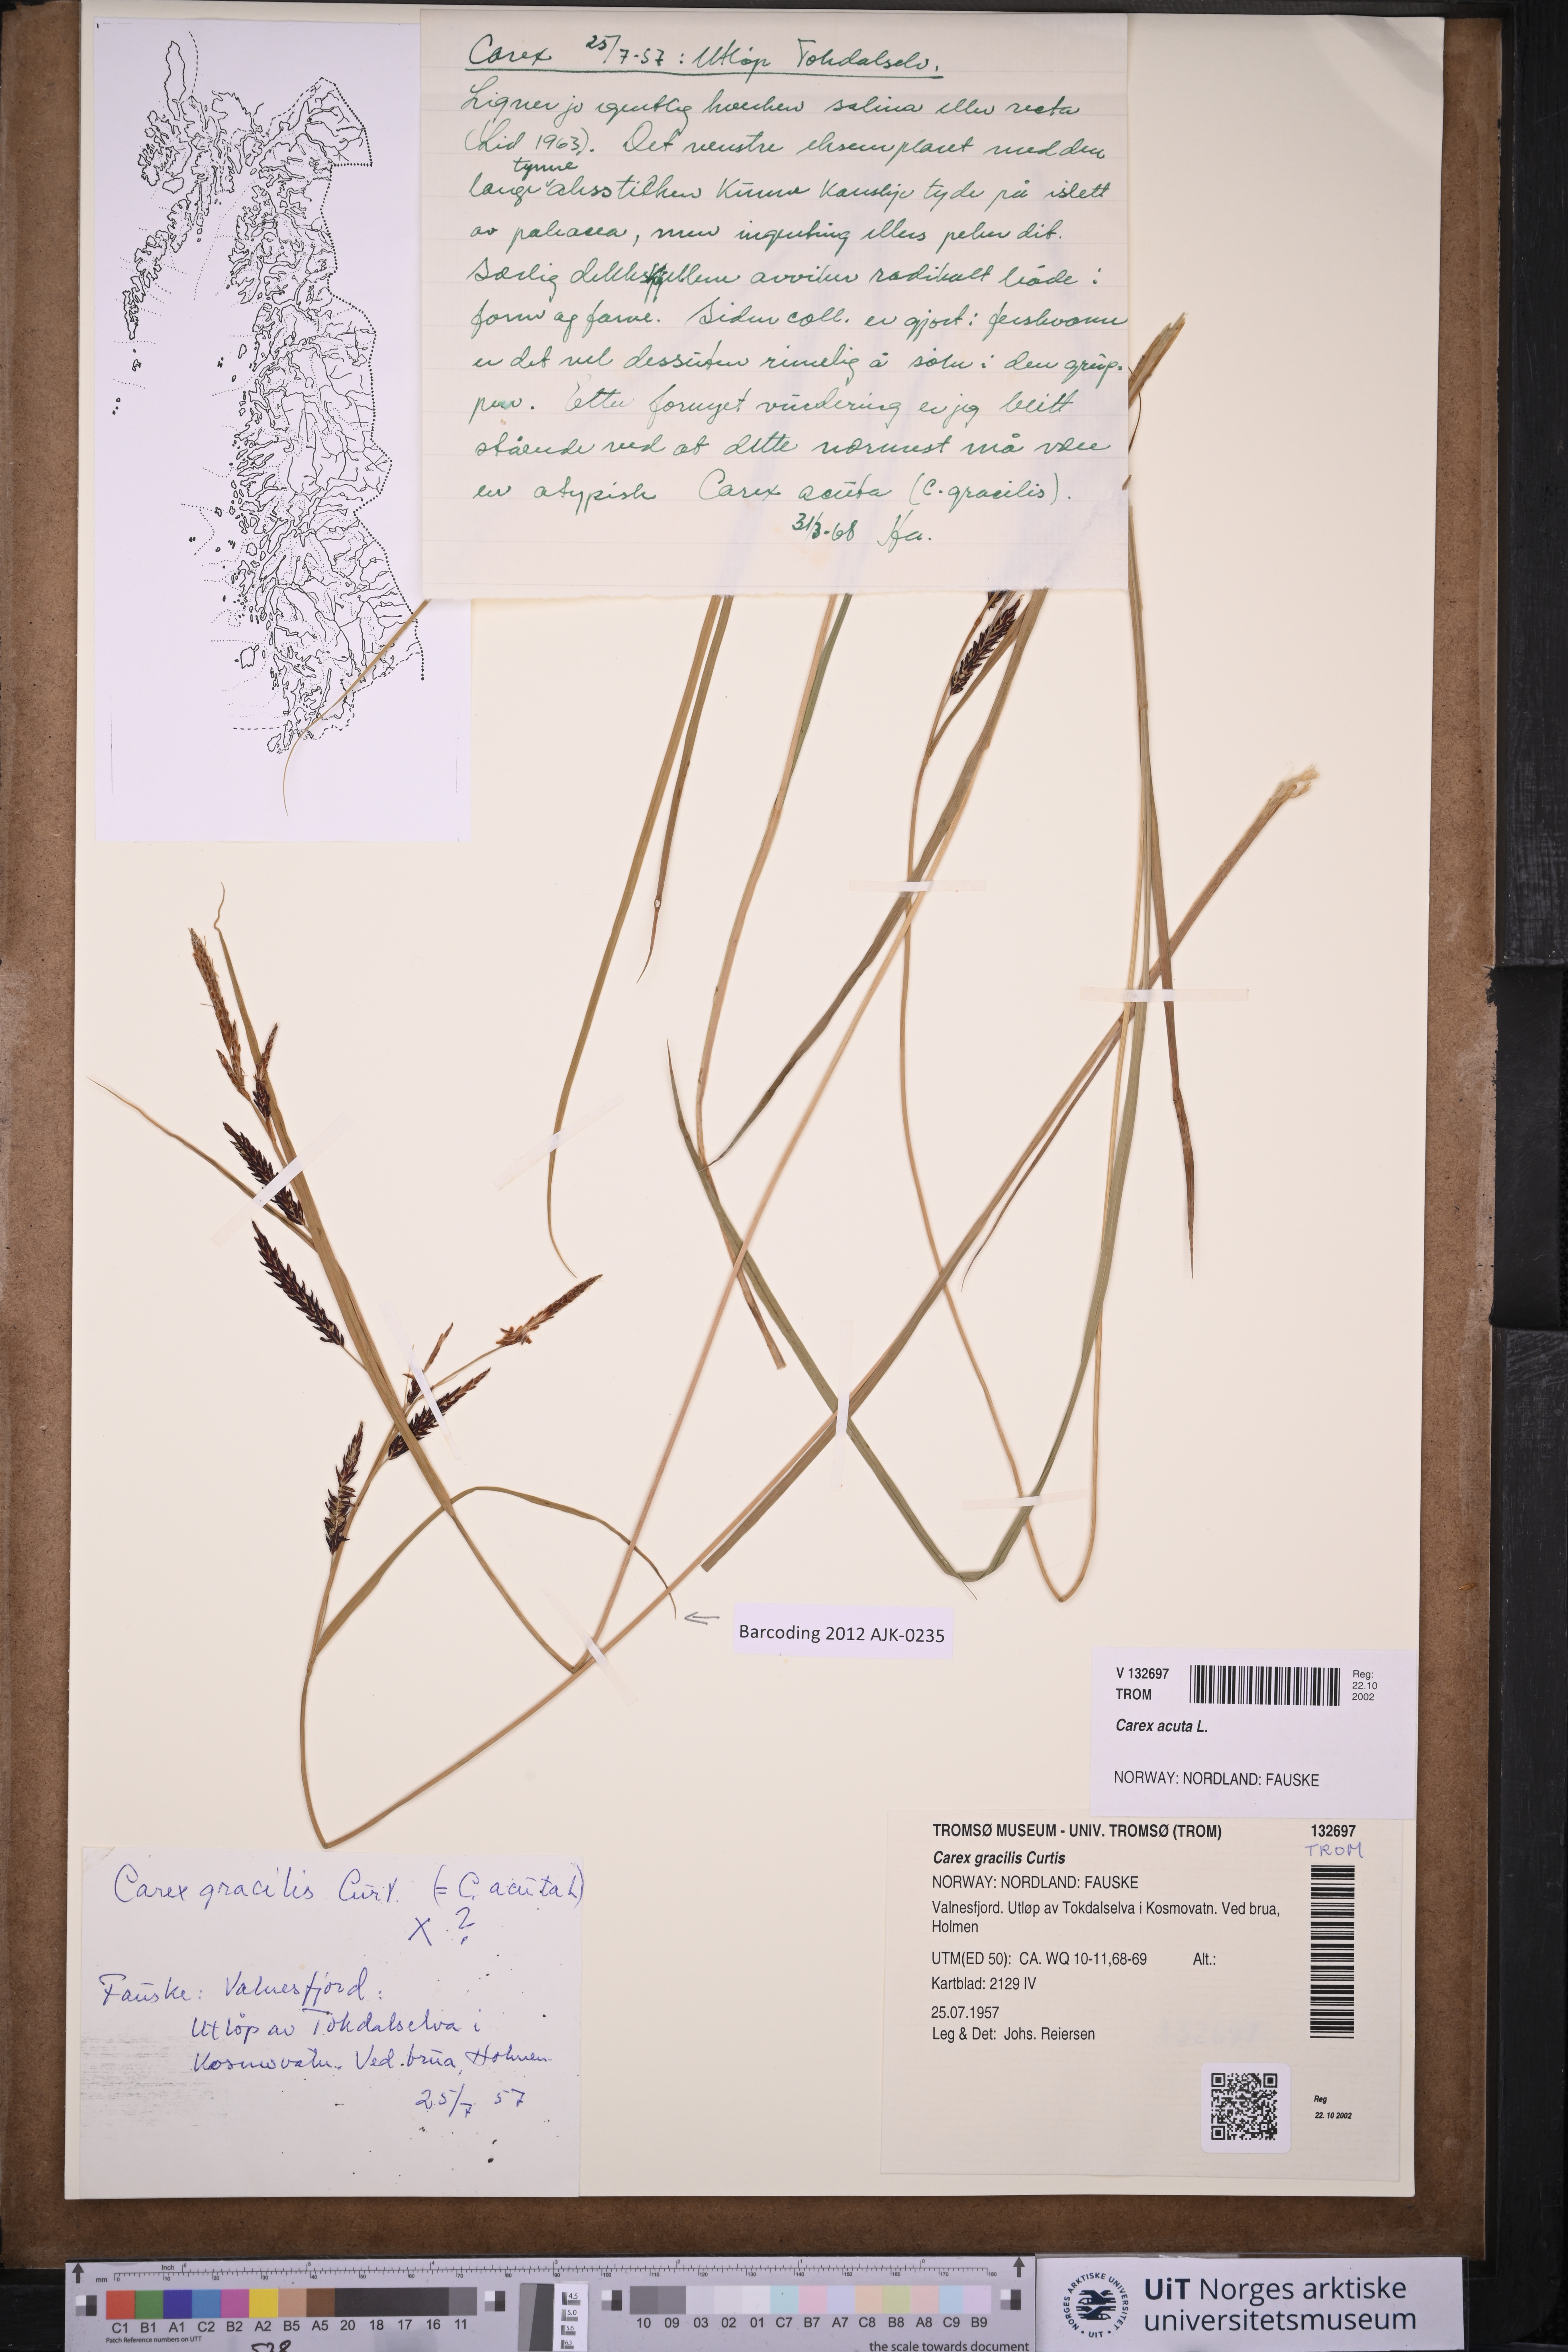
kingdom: Plantae
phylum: Tracheophyta
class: Liliopsida
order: Poales
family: Cyperaceae
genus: Carex
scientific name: Carex acuta
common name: Slender tufted-sedge
